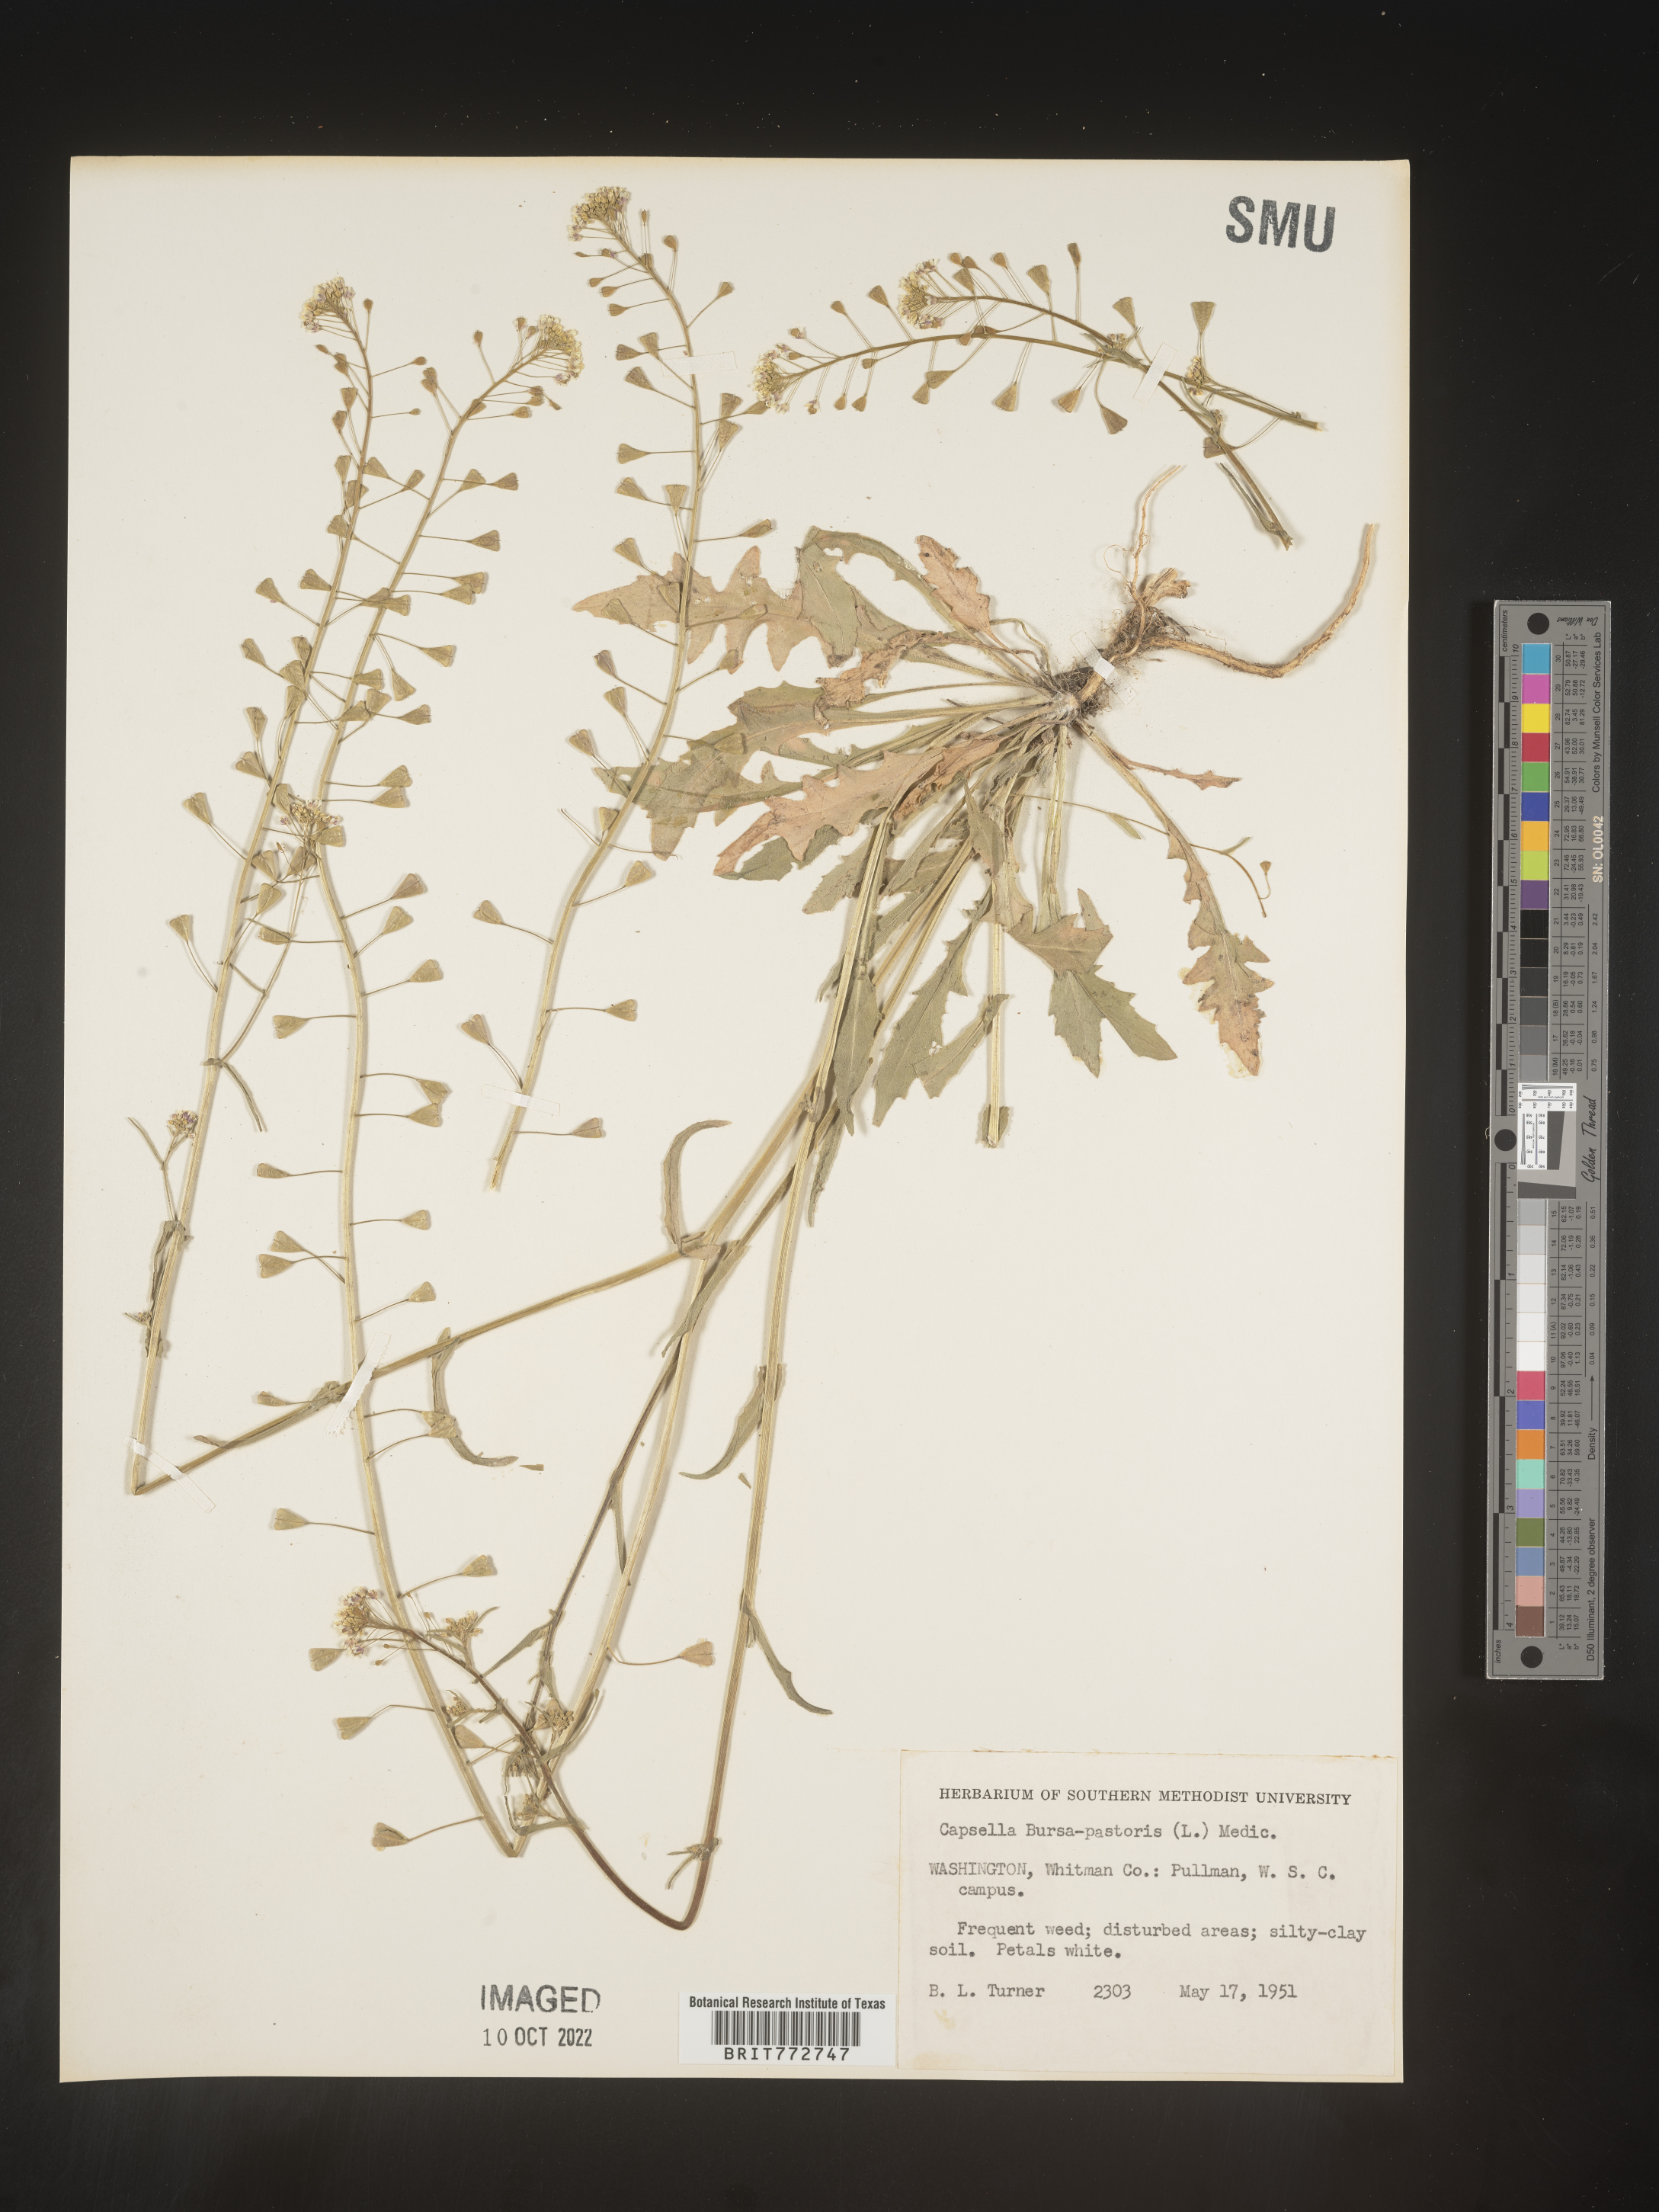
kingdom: Plantae
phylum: Tracheophyta
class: Magnoliopsida
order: Brassicales
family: Brassicaceae
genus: Capsella
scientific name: Capsella bursa-pastoris
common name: Shepherd's purse
